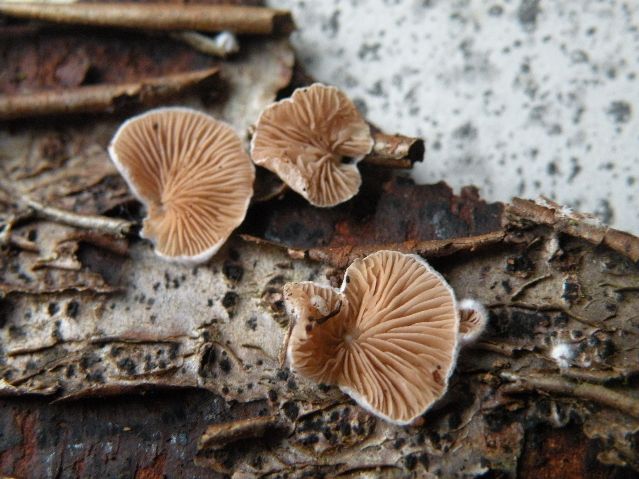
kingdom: Fungi
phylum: Basidiomycota
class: Agaricomycetes
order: Agaricales
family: Crepidotaceae
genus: Crepidotus
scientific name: Crepidotus variabilis
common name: forskelligformet muslingesvamp
